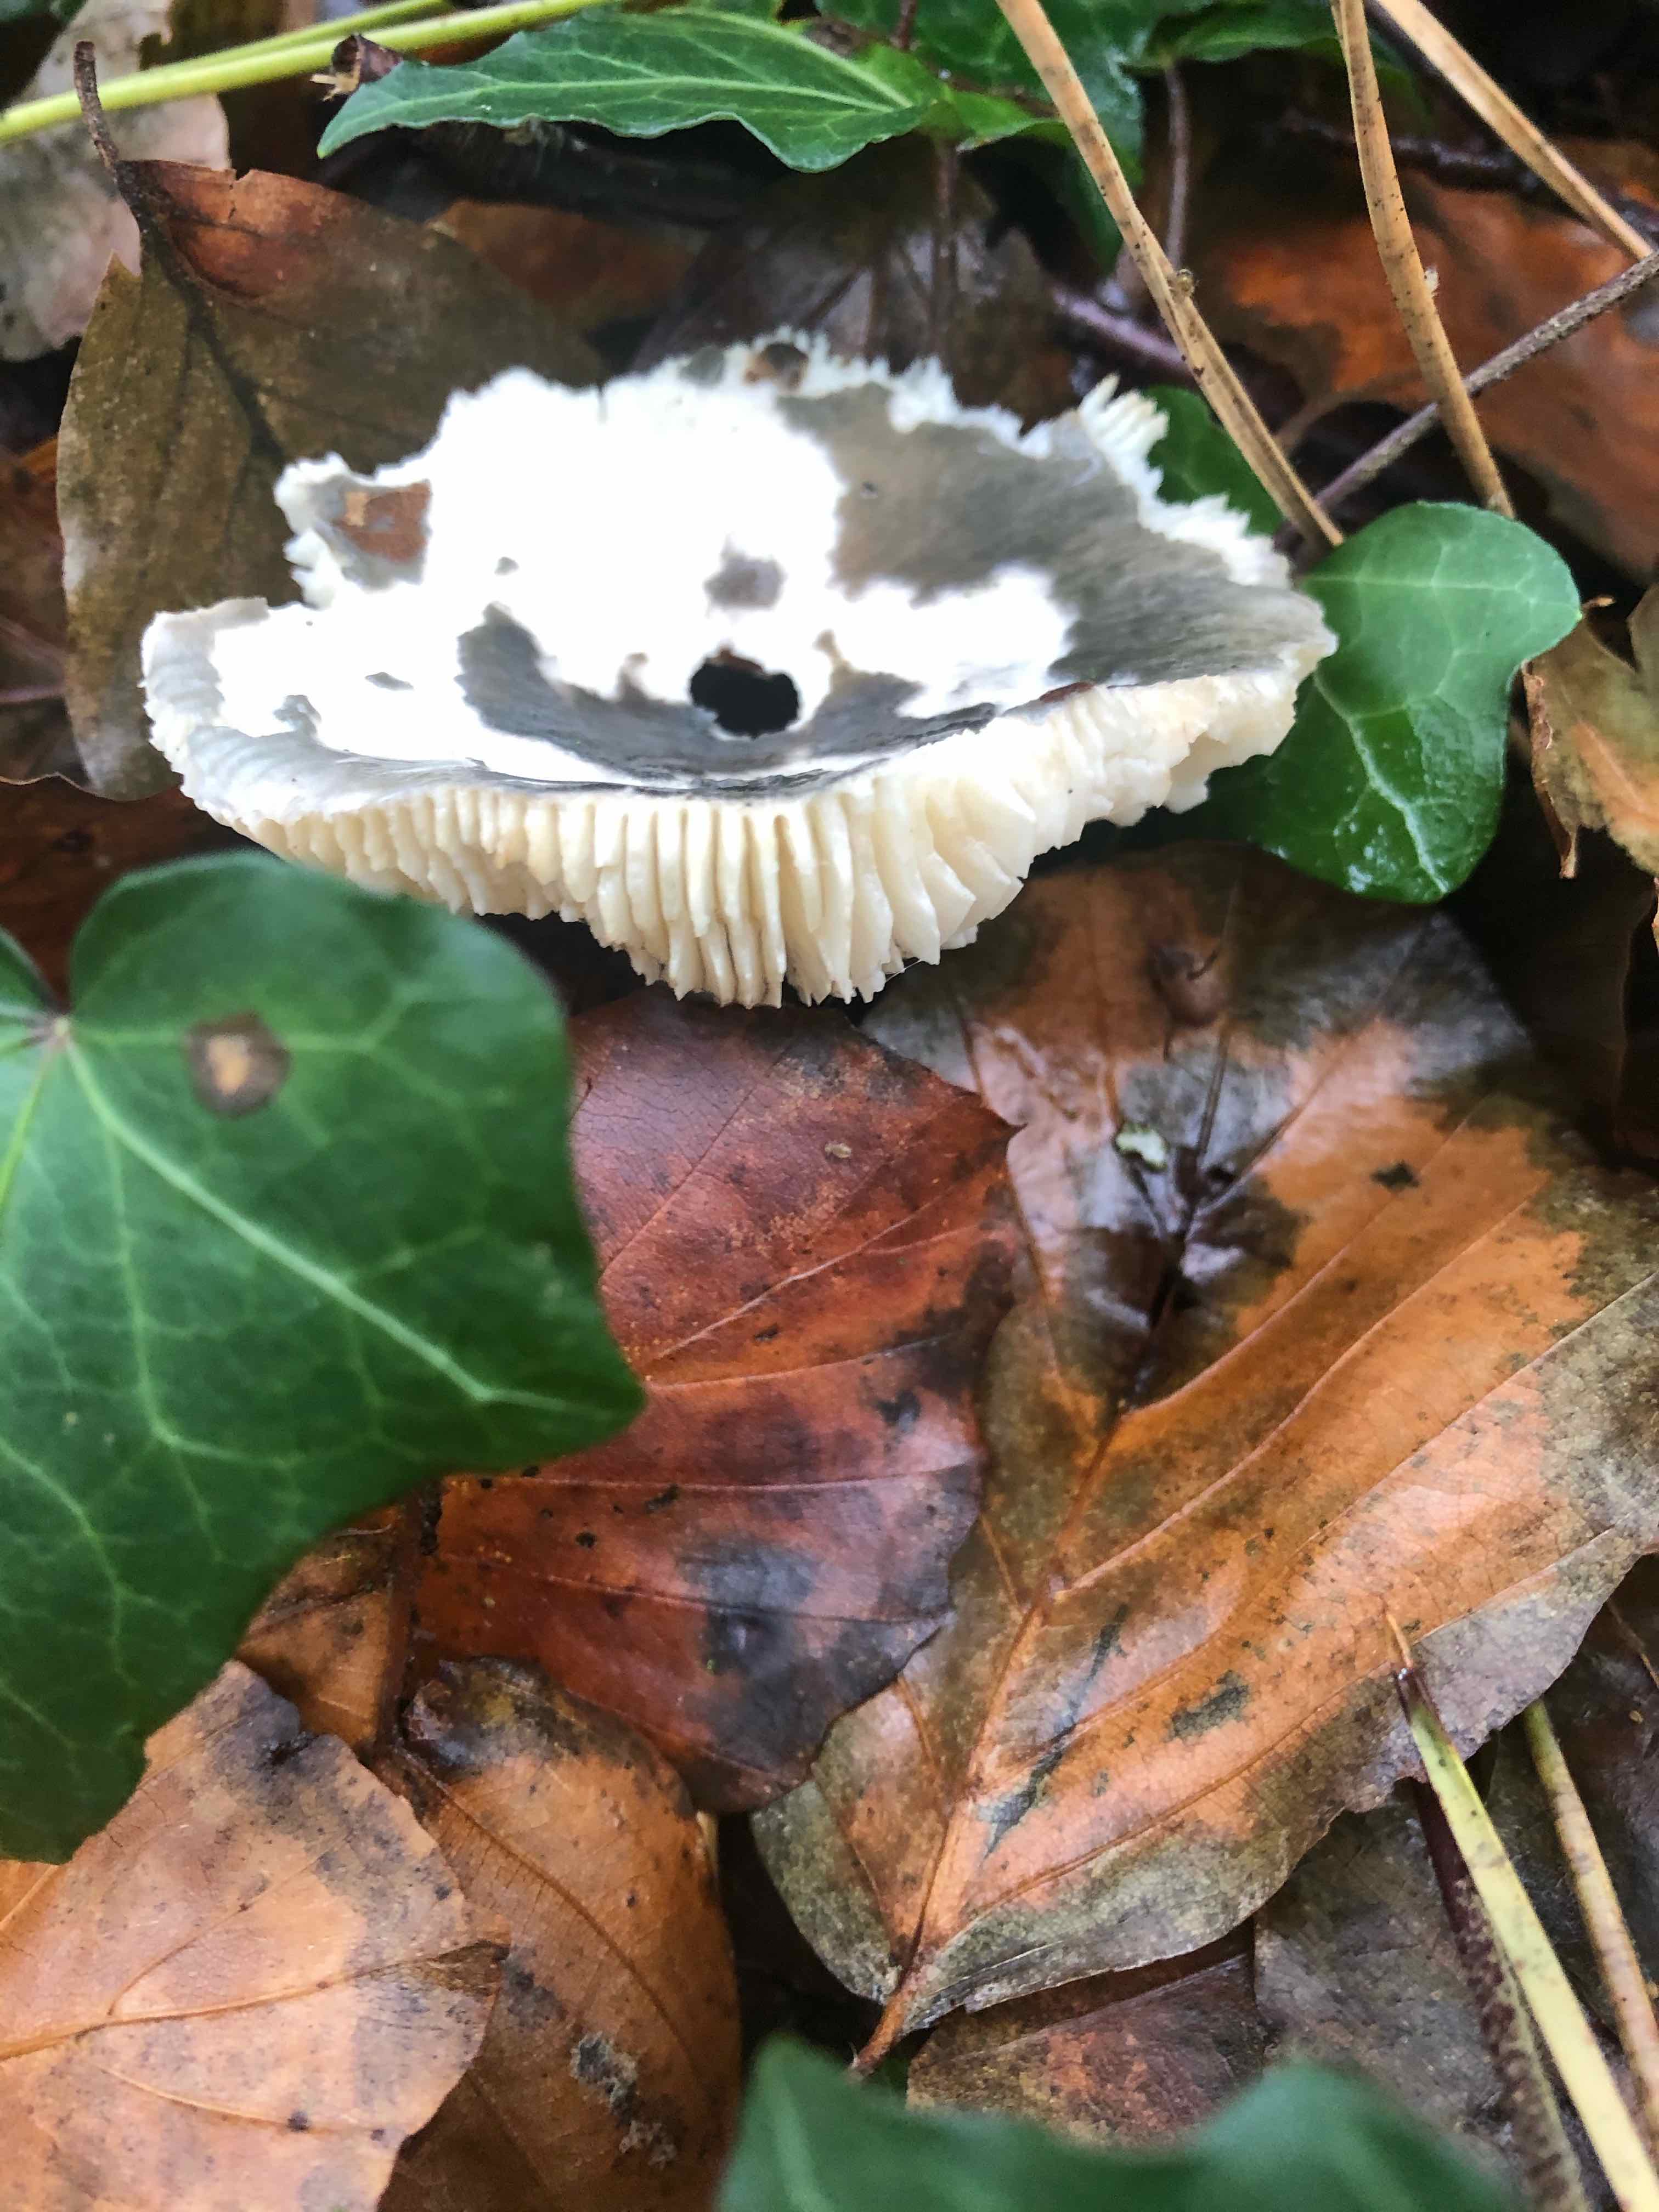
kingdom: Fungi
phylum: Basidiomycota
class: Agaricomycetes
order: Russulales
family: Russulaceae
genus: Russula
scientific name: Russula
